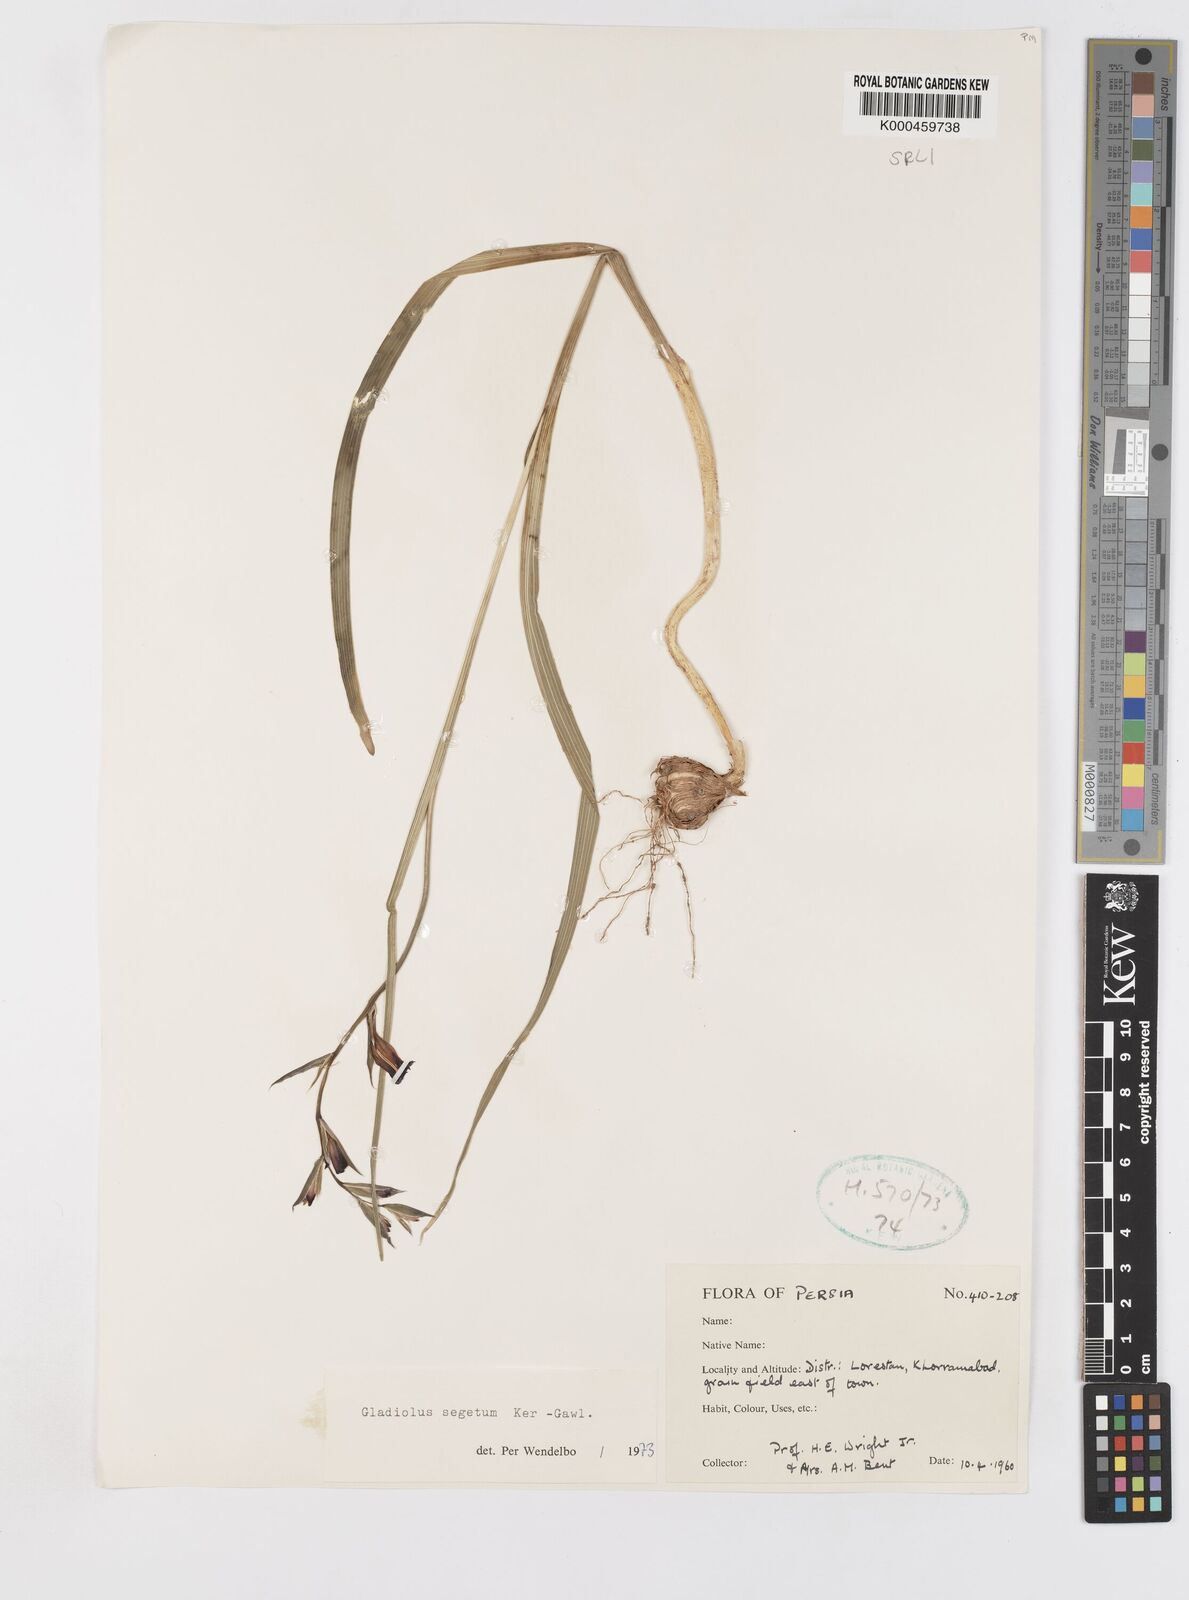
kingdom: Plantae
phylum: Tracheophyta
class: Liliopsida
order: Asparagales
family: Iridaceae
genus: Gladiolus
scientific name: Gladiolus italicus
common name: Field gladiolus
